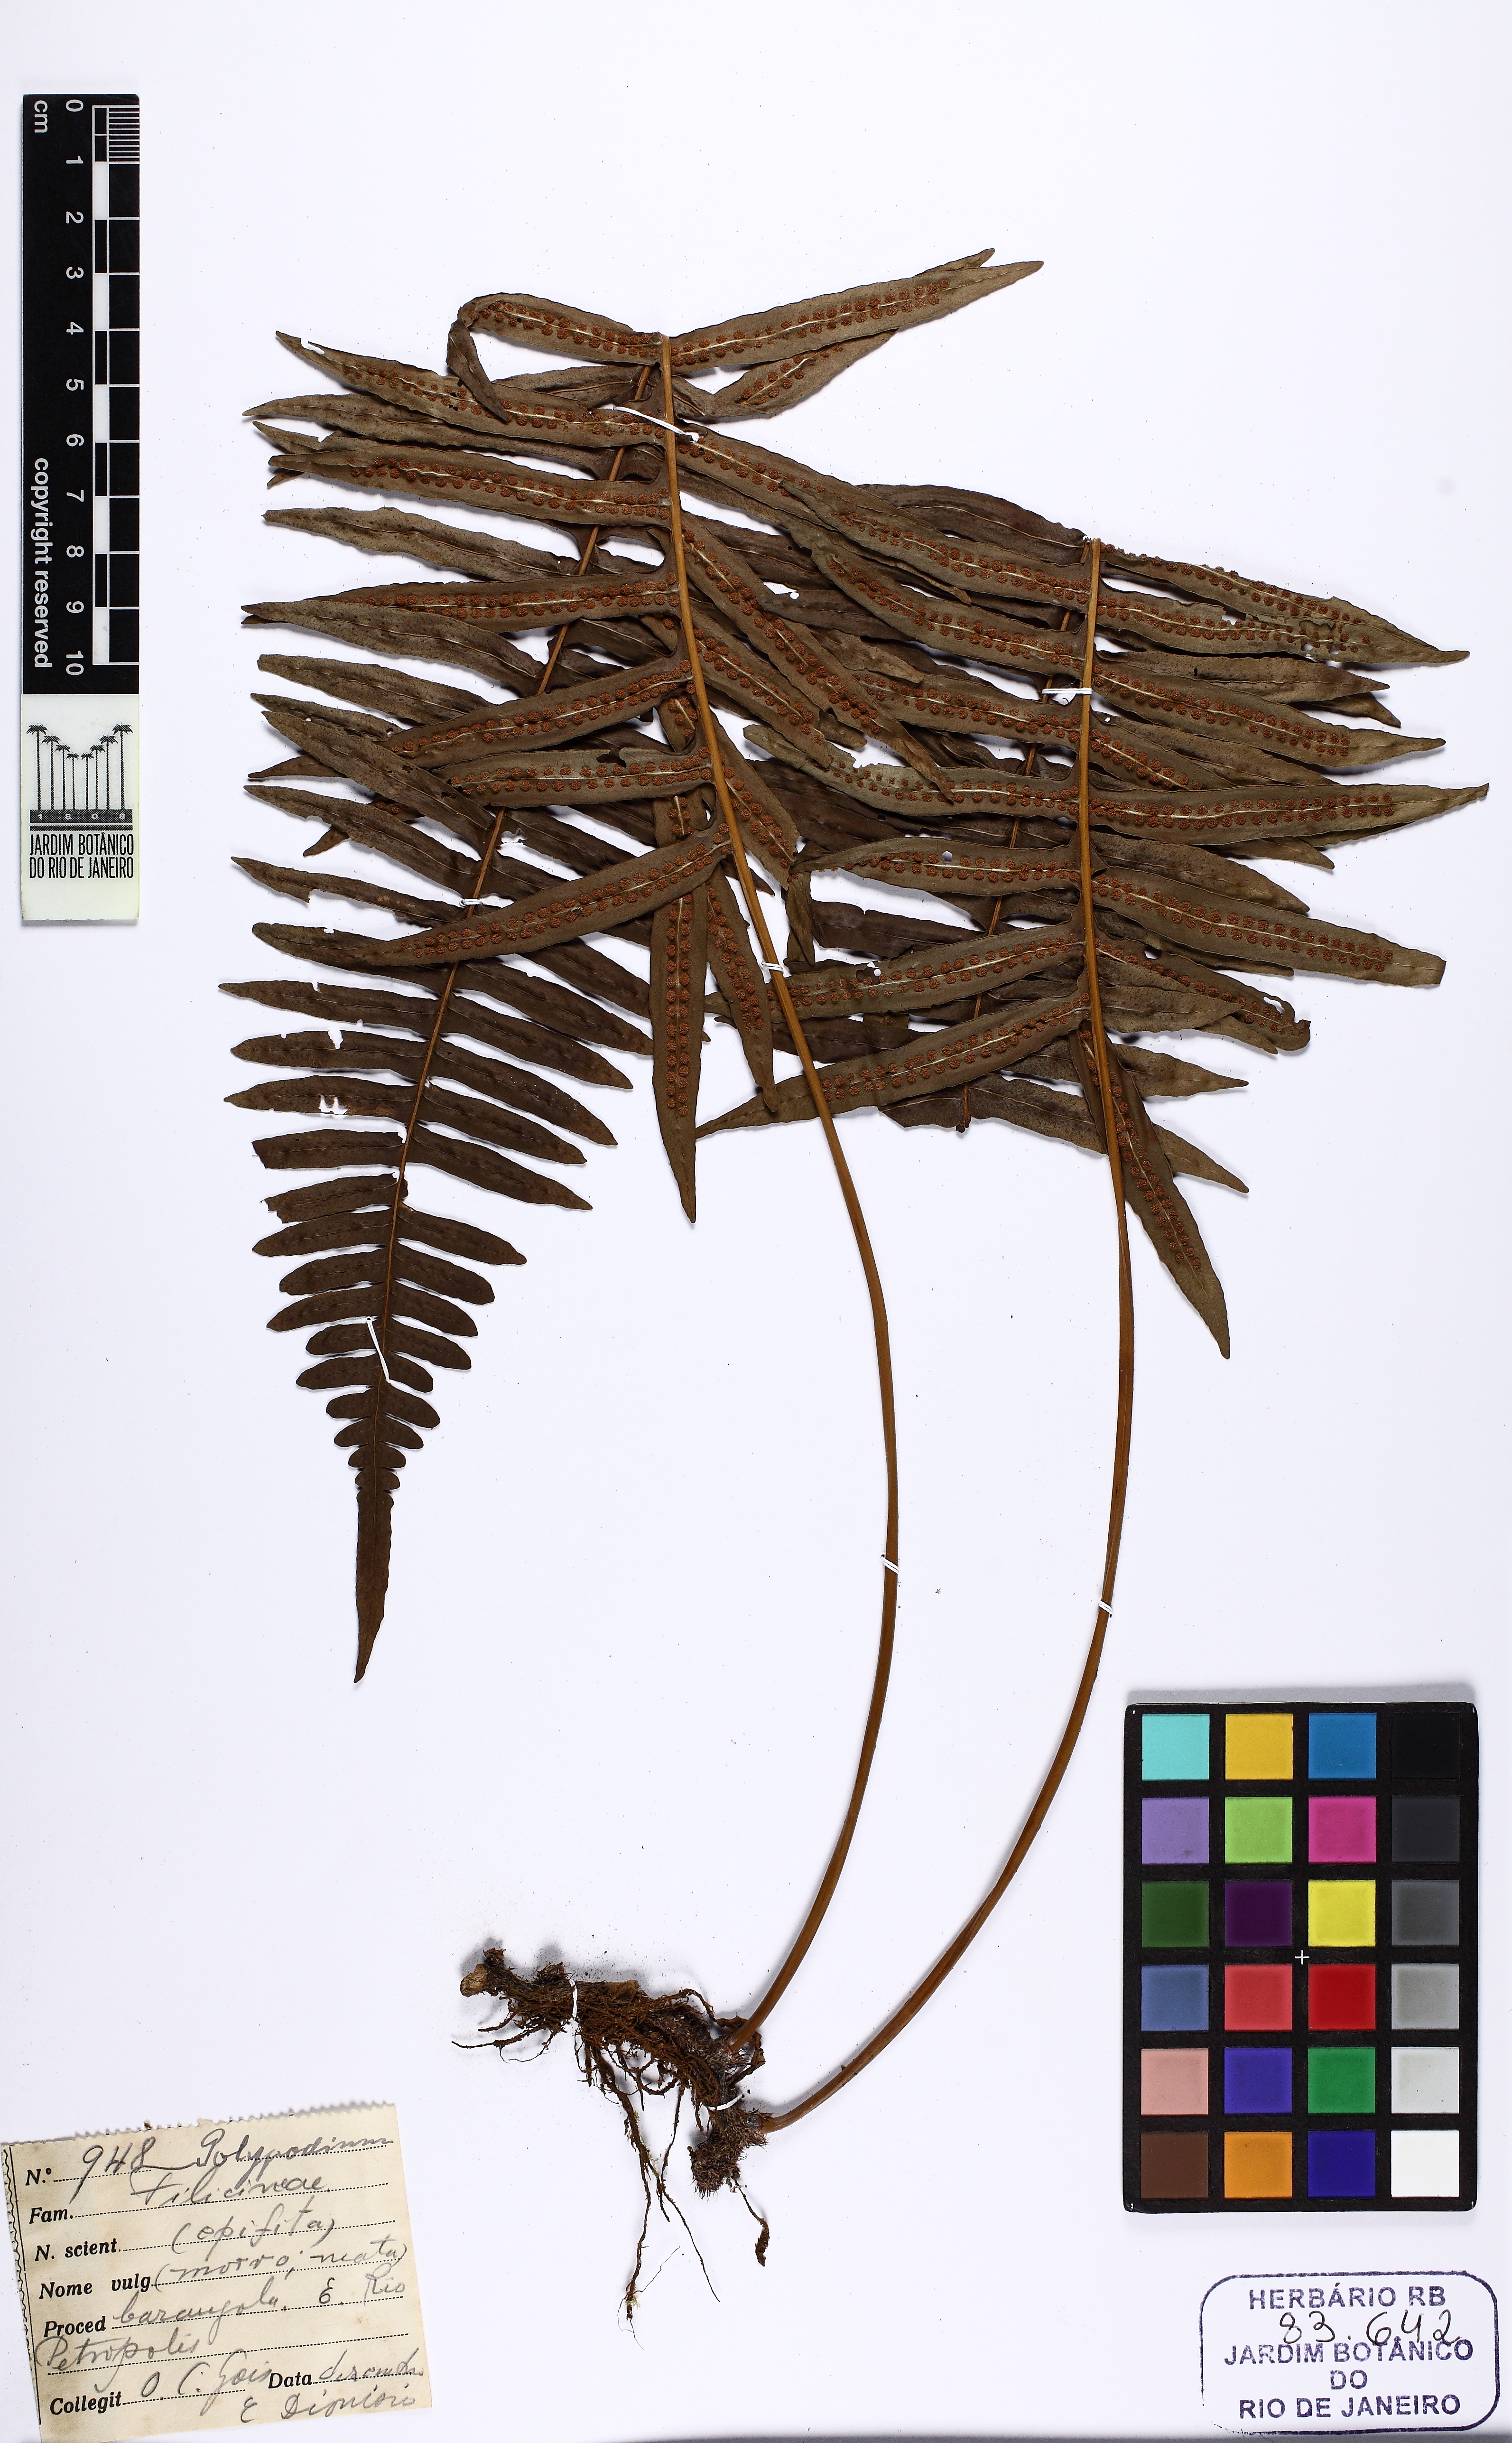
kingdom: Plantae
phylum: Tracheophyta
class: Polypodiopsida
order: Polypodiales
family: Polypodiaceae
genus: Serpocaulon
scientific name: Serpocaulon catharinae
